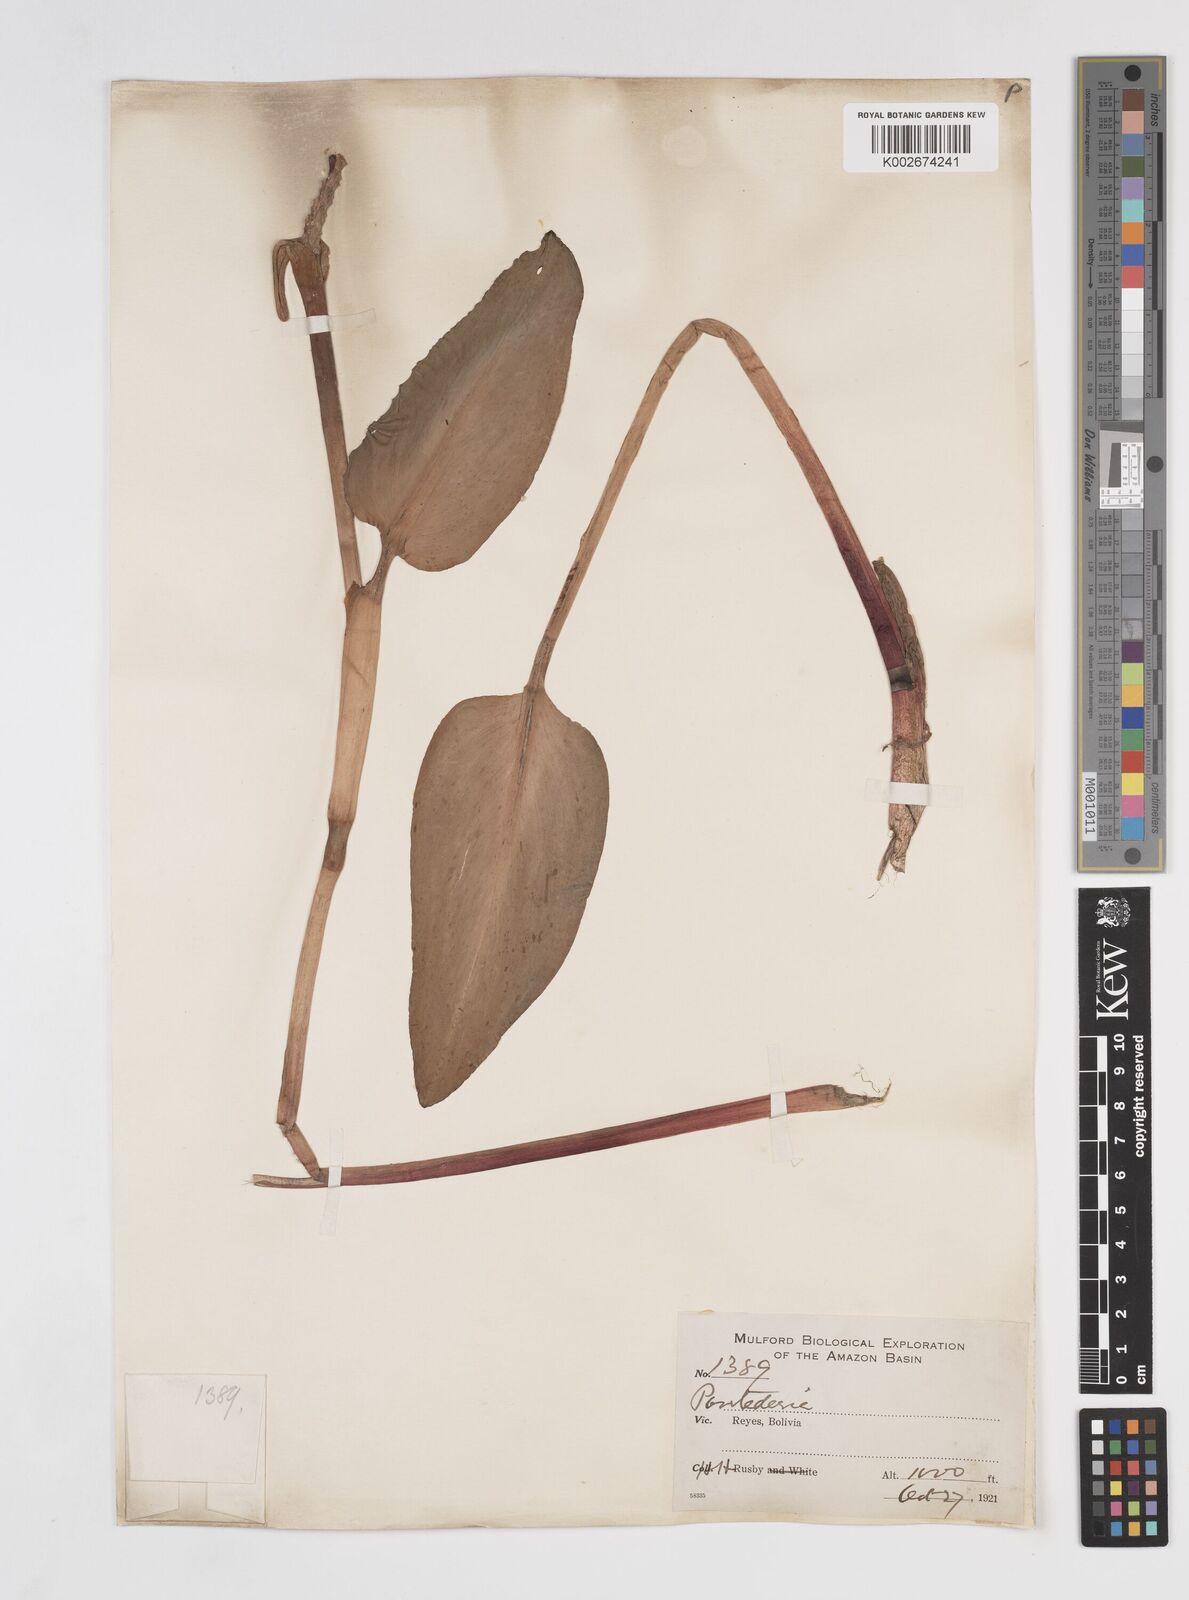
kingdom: Plantae
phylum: Tracheophyta
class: Liliopsida
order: Commelinales
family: Pontederiaceae
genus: Pontederia
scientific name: Pontederia
